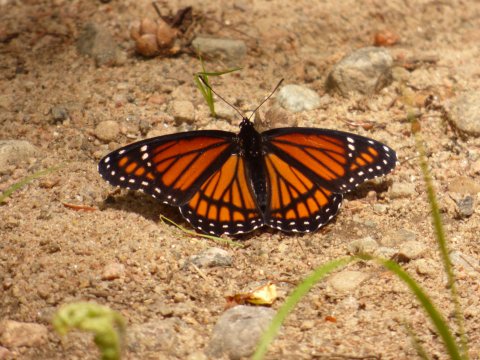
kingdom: Animalia
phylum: Arthropoda
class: Insecta
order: Lepidoptera
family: Nymphalidae
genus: Limenitis
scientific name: Limenitis archippus
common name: Viceroy
